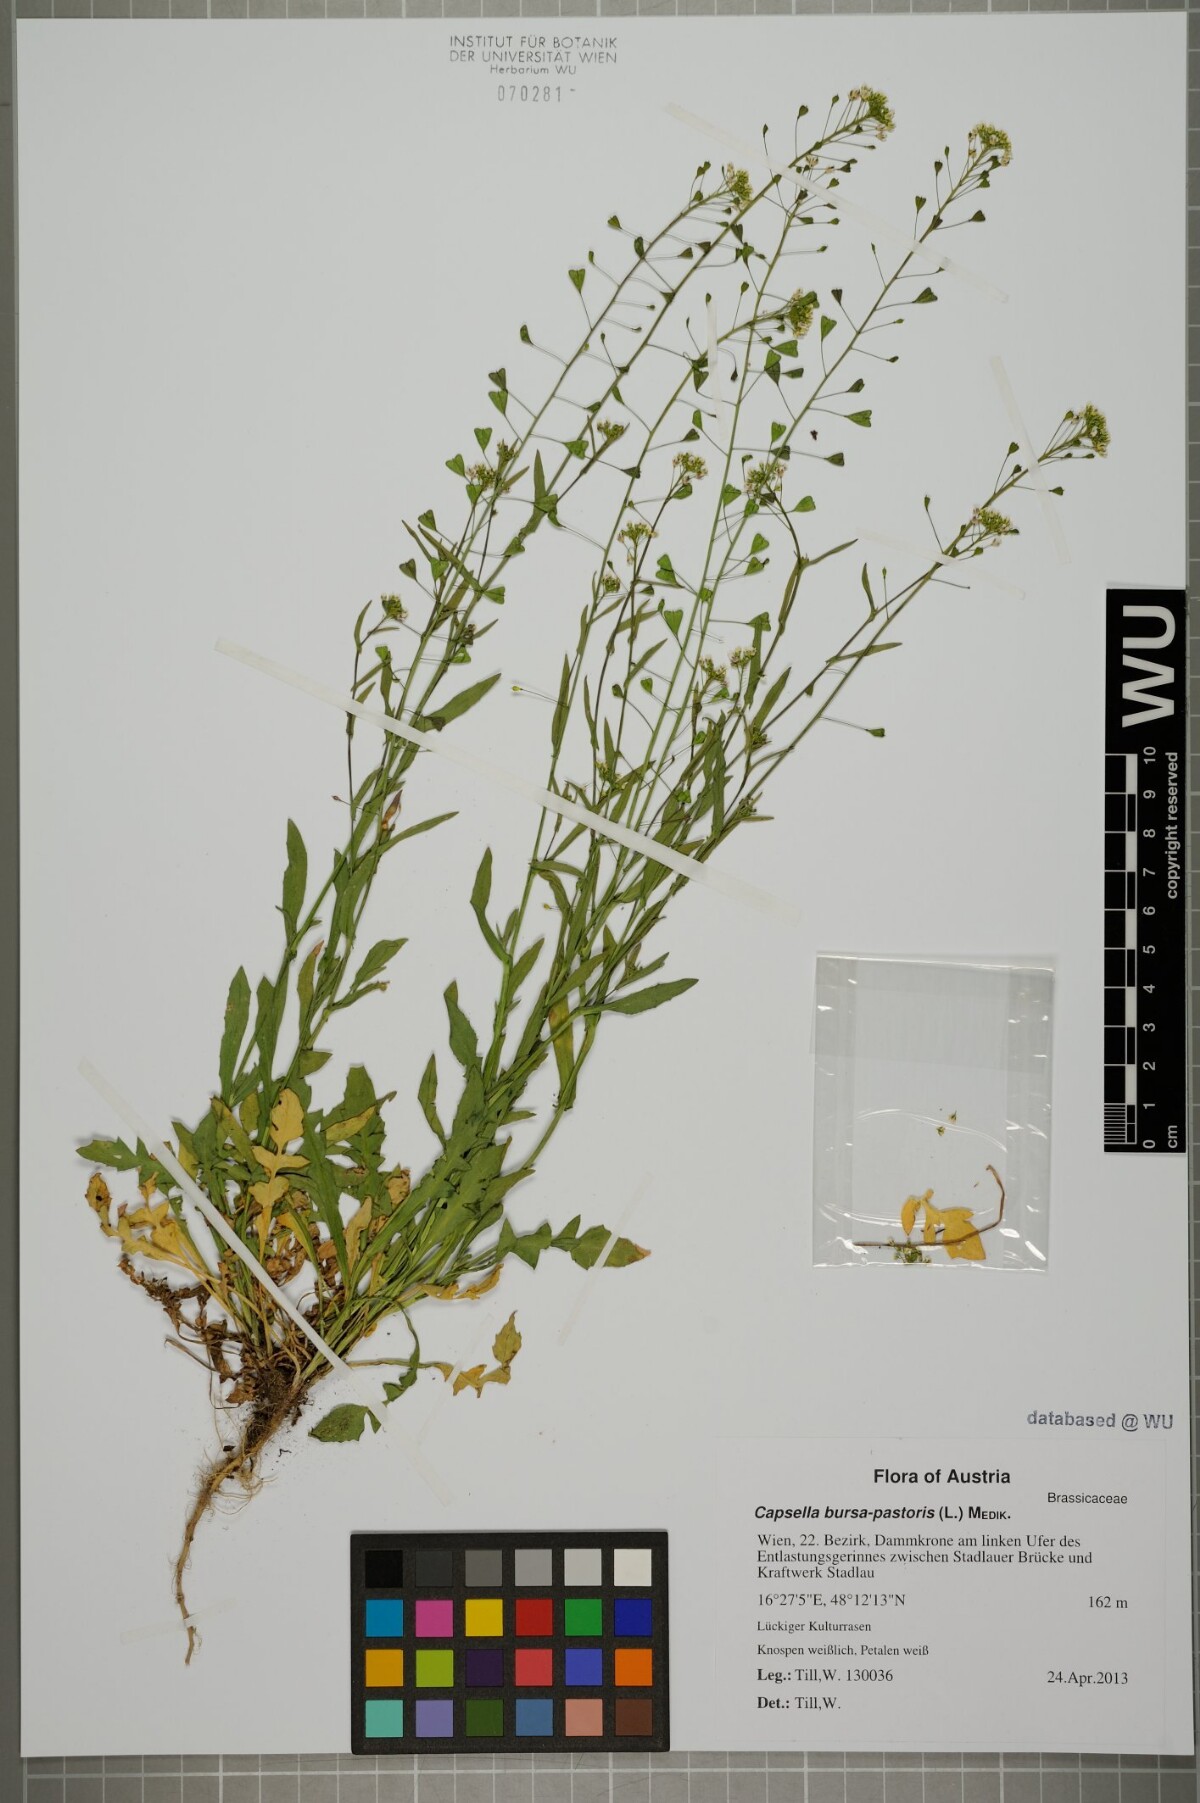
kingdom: Plantae
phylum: Tracheophyta
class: Magnoliopsida
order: Brassicales
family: Brassicaceae
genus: Capsella
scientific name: Capsella bursa-pastoris
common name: Shepherd's purse
